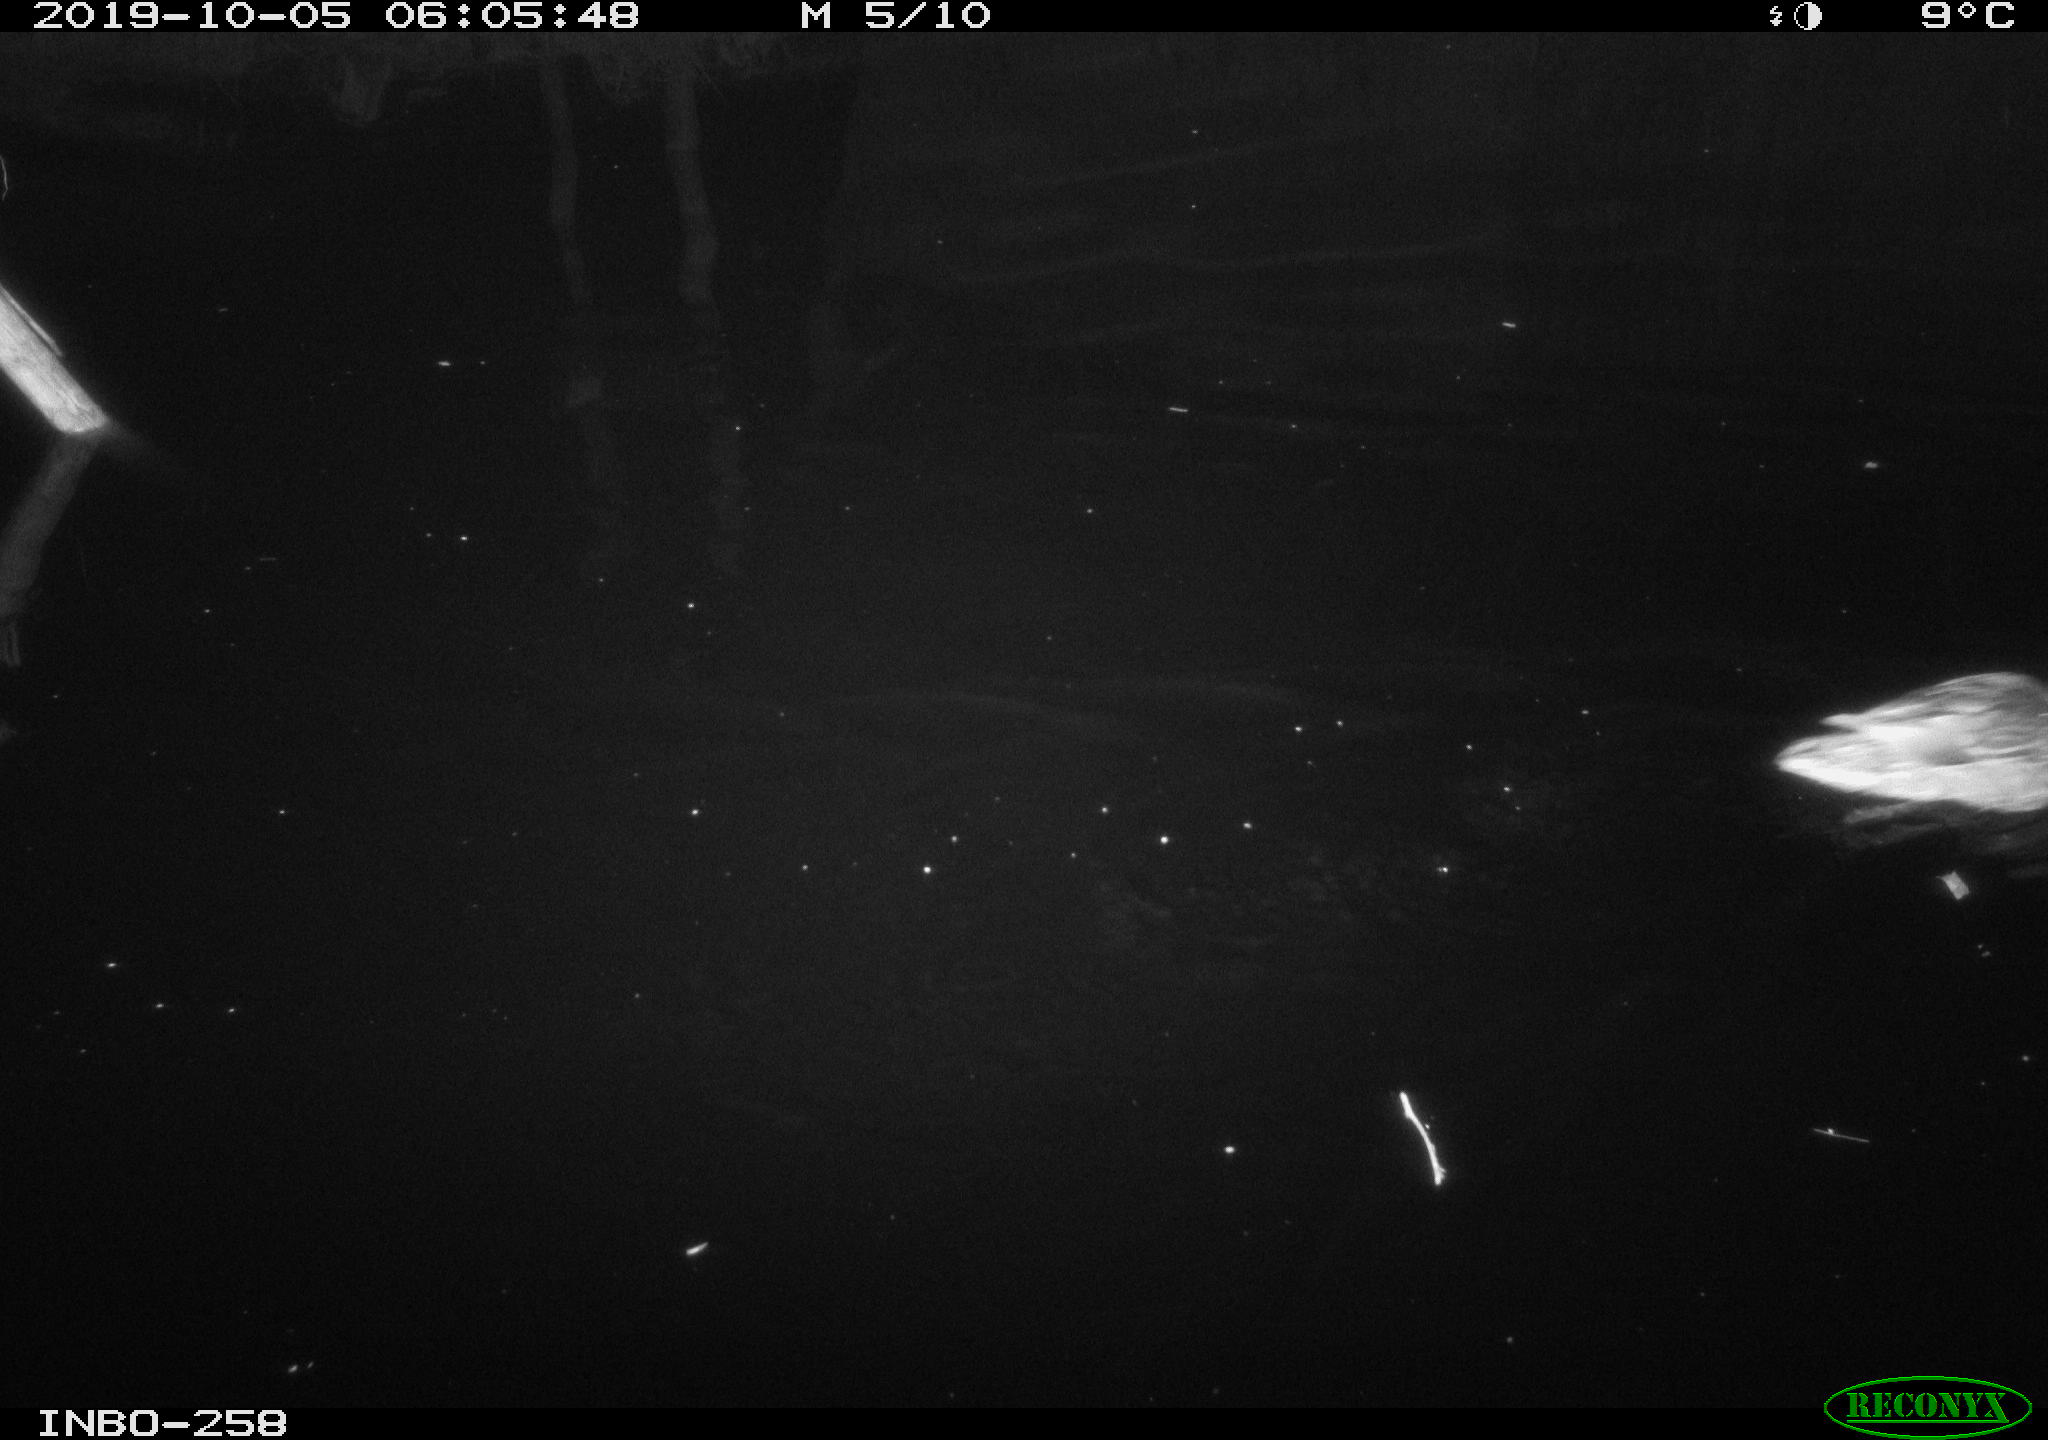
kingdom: Animalia
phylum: Chordata
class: Aves
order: Anseriformes
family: Anatidae
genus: Anas
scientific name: Anas platyrhynchos
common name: Mallard
